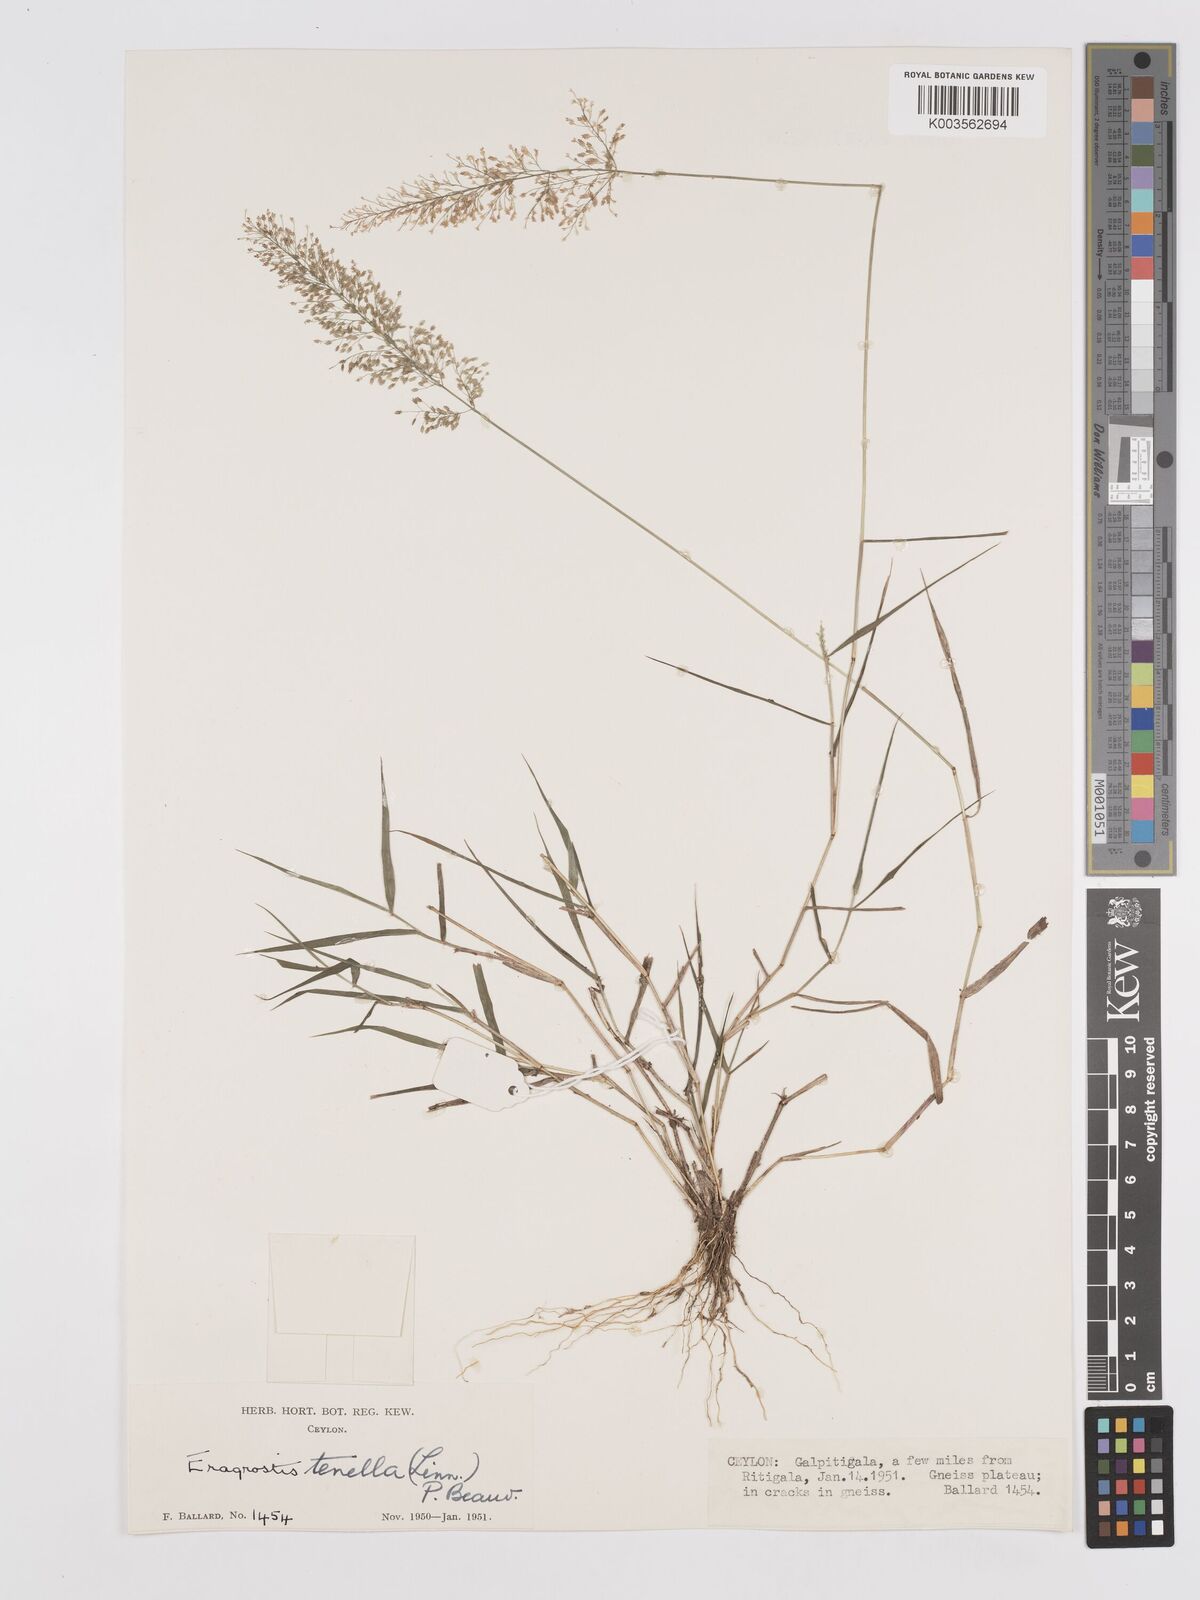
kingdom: Plantae
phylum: Tracheophyta
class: Liliopsida
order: Poales
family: Poaceae
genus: Eragrostis
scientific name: Eragrostis tenella
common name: Japanese lovegrass
